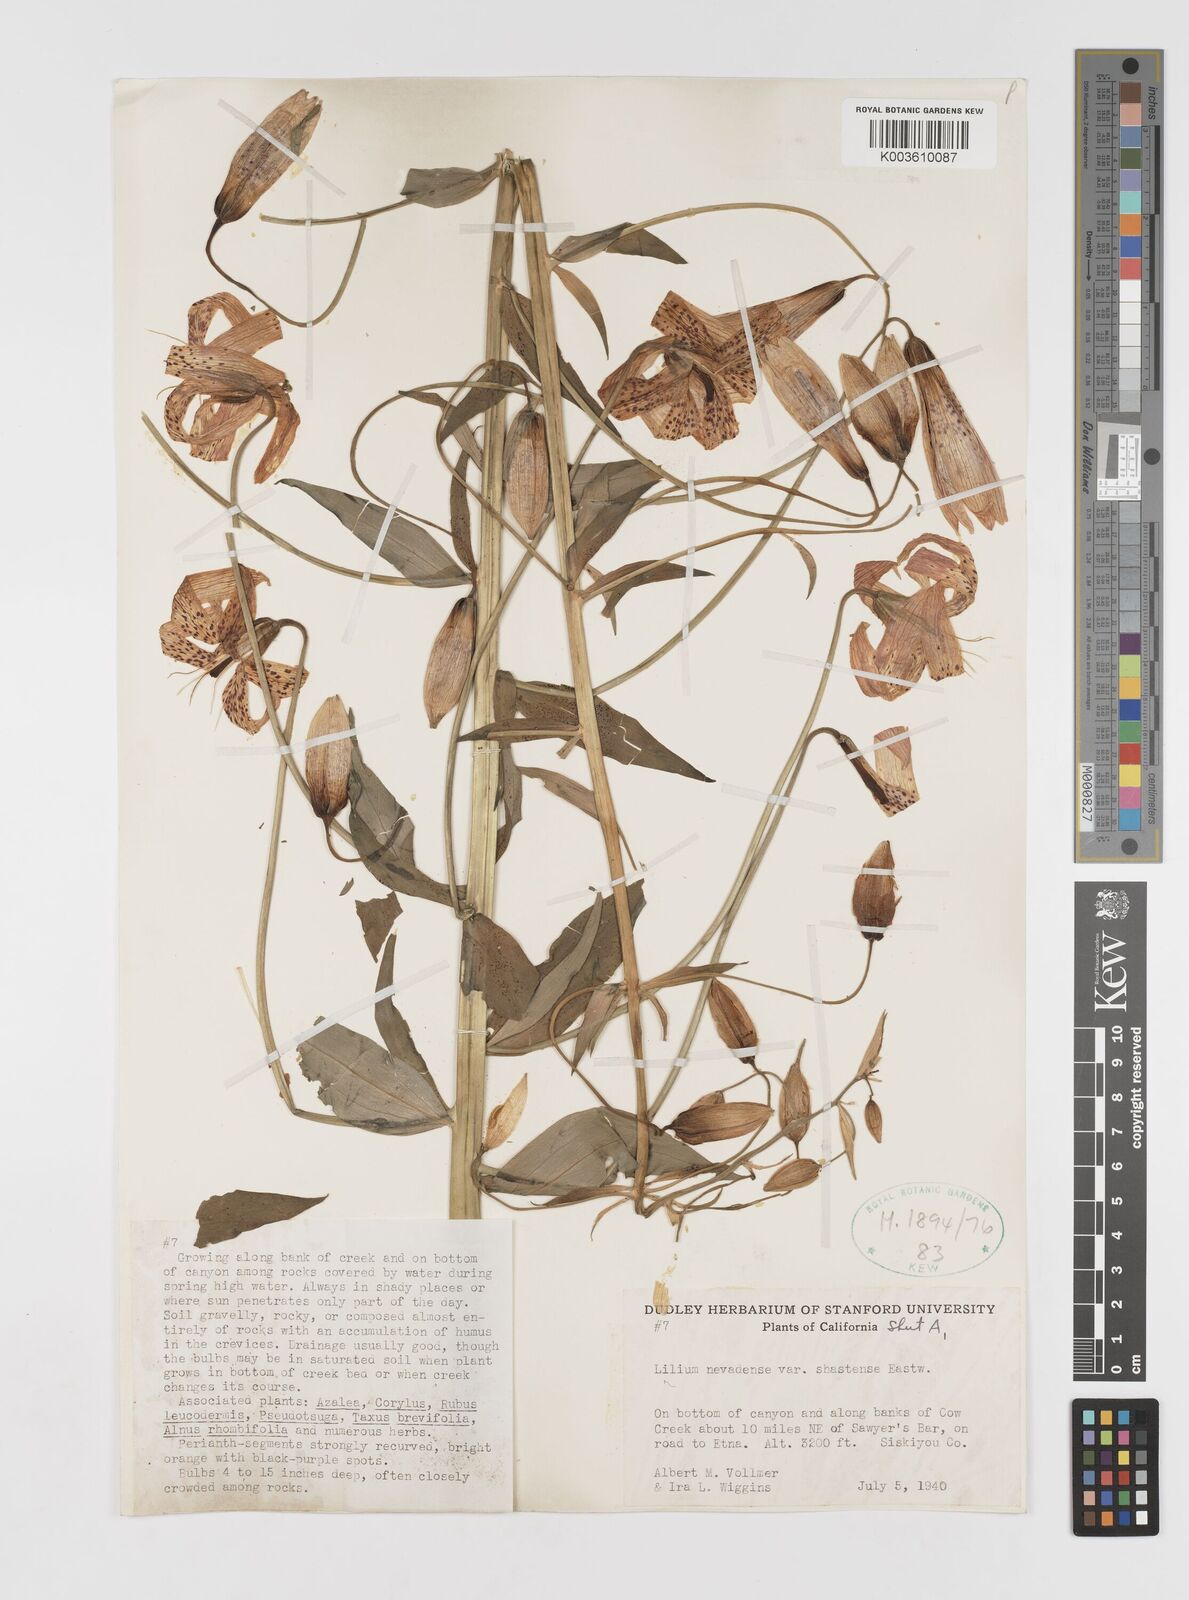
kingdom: Plantae
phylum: Tracheophyta
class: Liliopsida
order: Liliales
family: Liliaceae
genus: Lilium
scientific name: Lilium kelleyanum
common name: Kelley's lily
